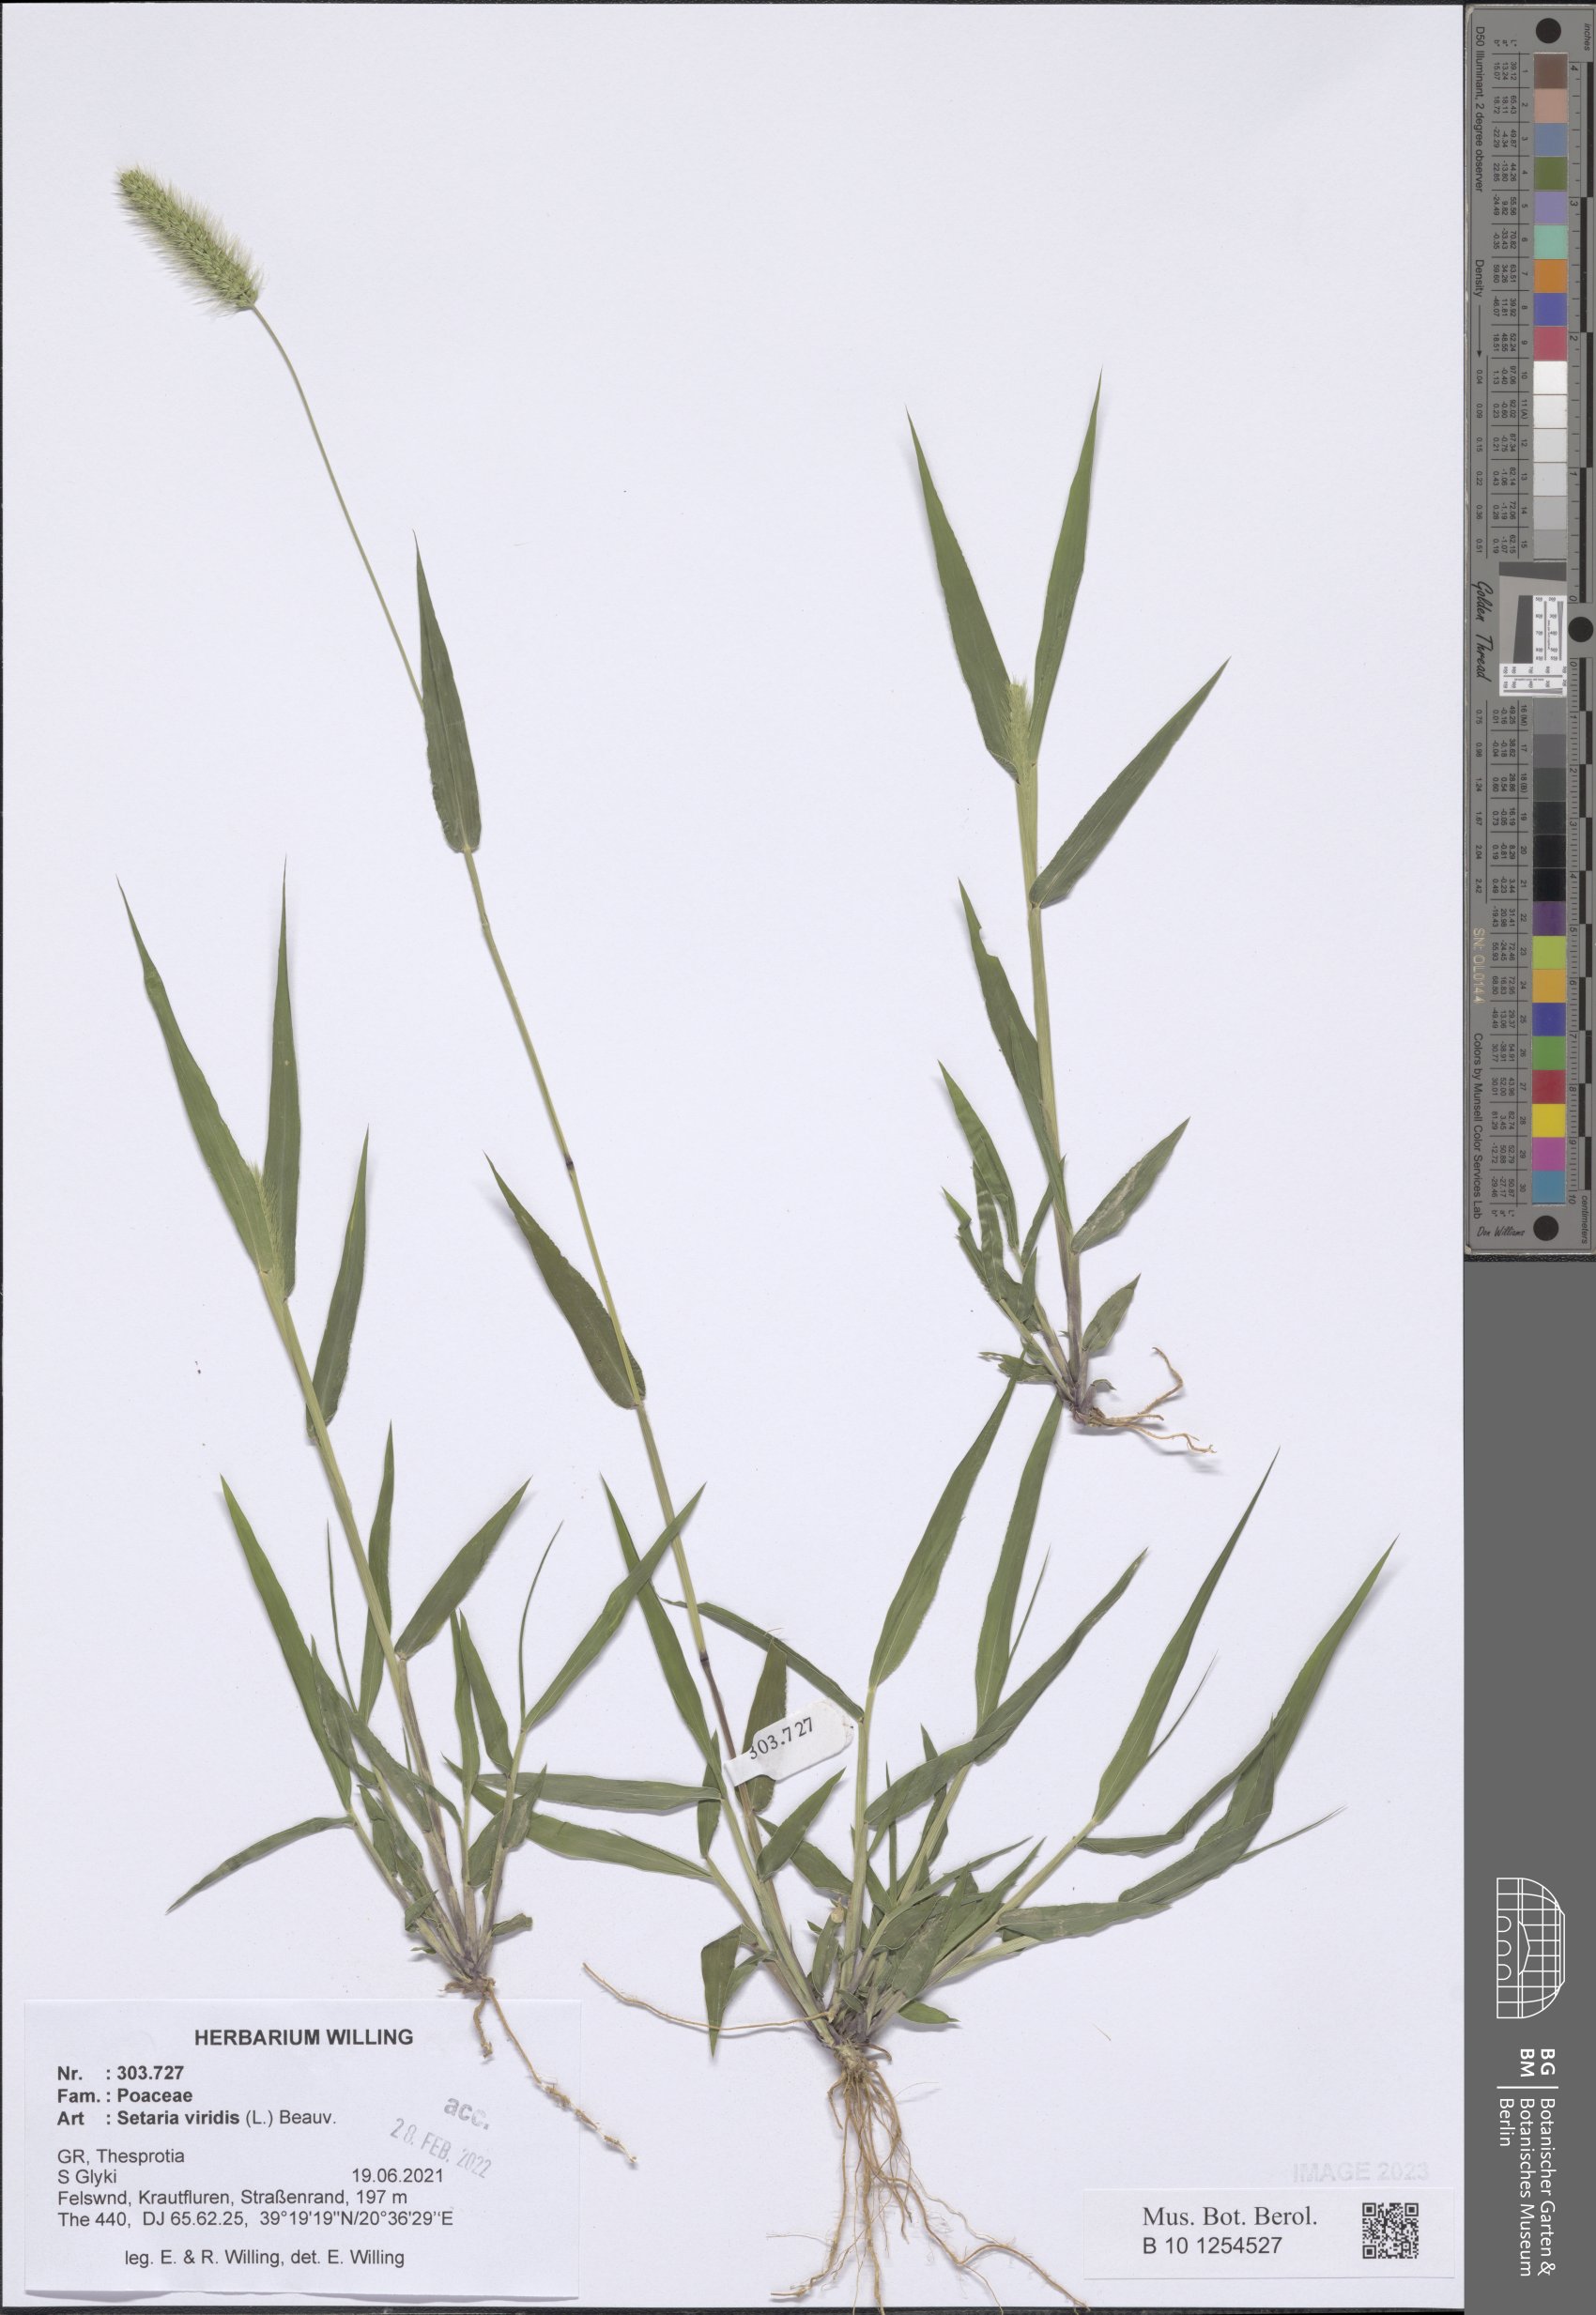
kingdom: Plantae
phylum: Tracheophyta
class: Liliopsida
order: Poales
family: Poaceae
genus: Setaria
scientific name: Setaria viridis
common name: Green bristlegrass
